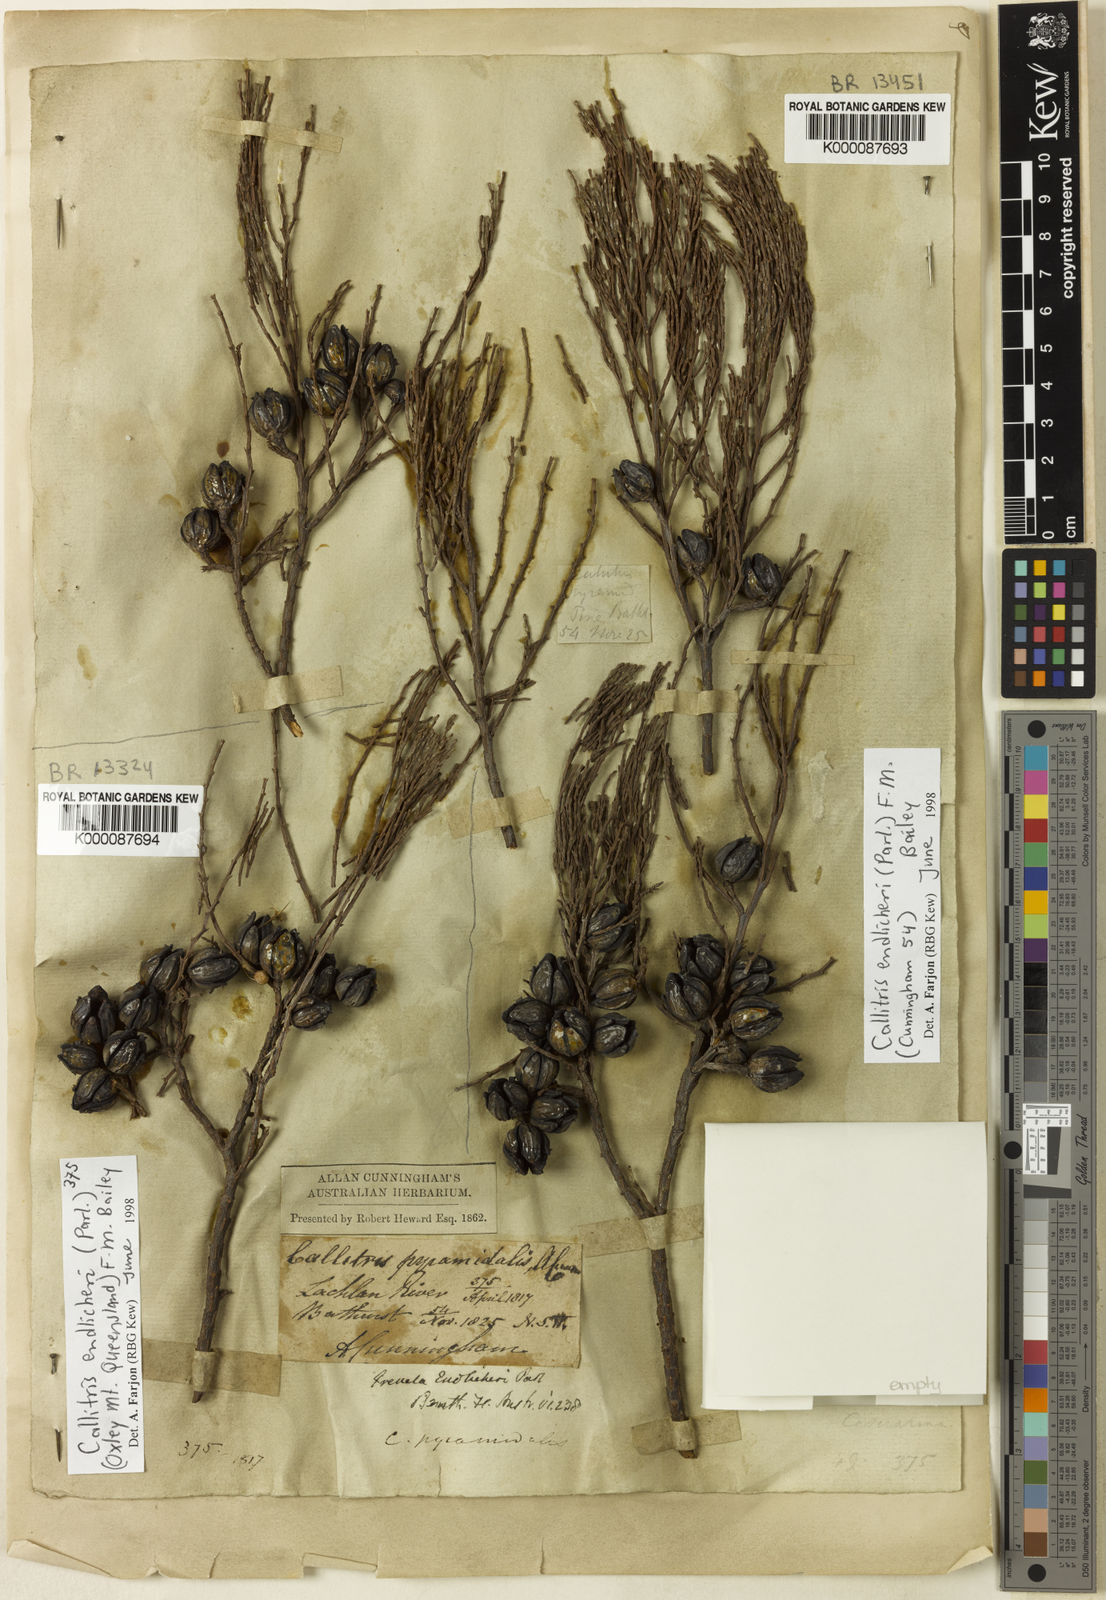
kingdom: Plantae
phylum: Tracheophyta
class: Pinopsida
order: Pinales
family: Cupressaceae
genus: Callitris
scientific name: Callitris endlicheri
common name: Black cypress-pine
